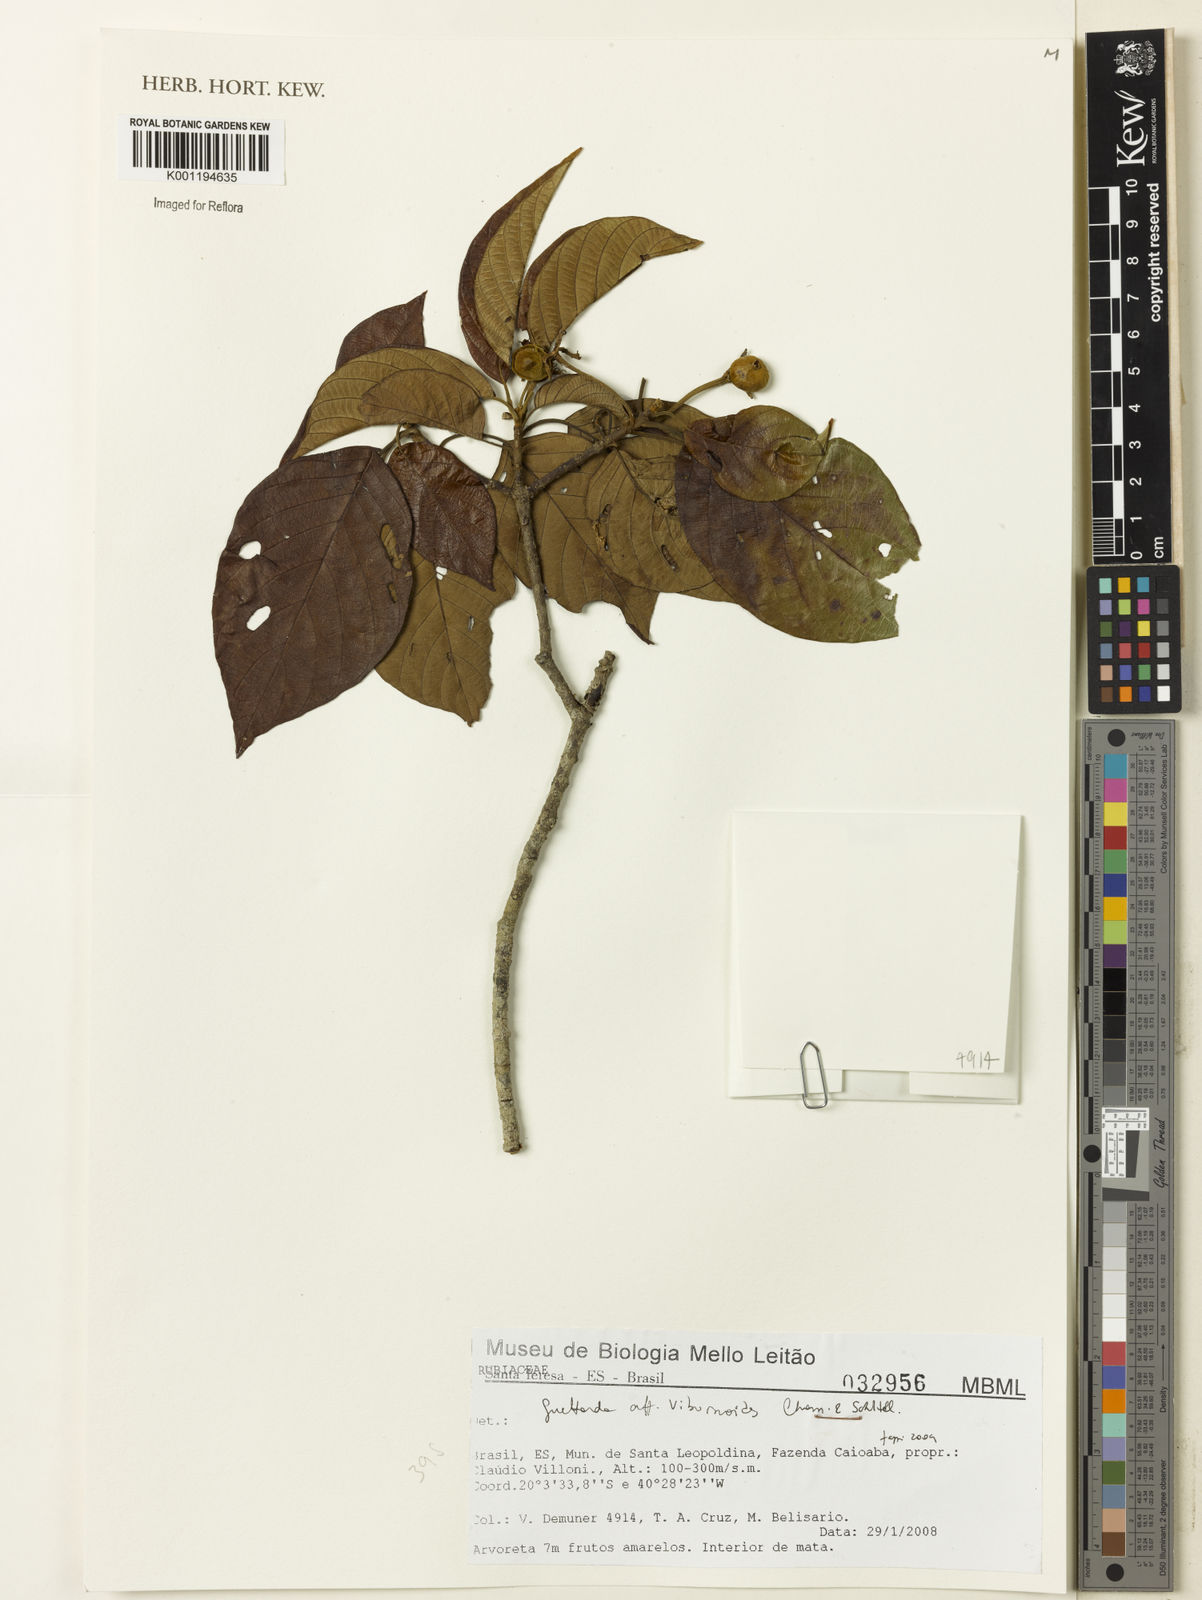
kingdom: Plantae
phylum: Tracheophyta
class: Magnoliopsida
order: Gentianales
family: Rubiaceae
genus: Guettarda
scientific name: Guettarda viburnoides
